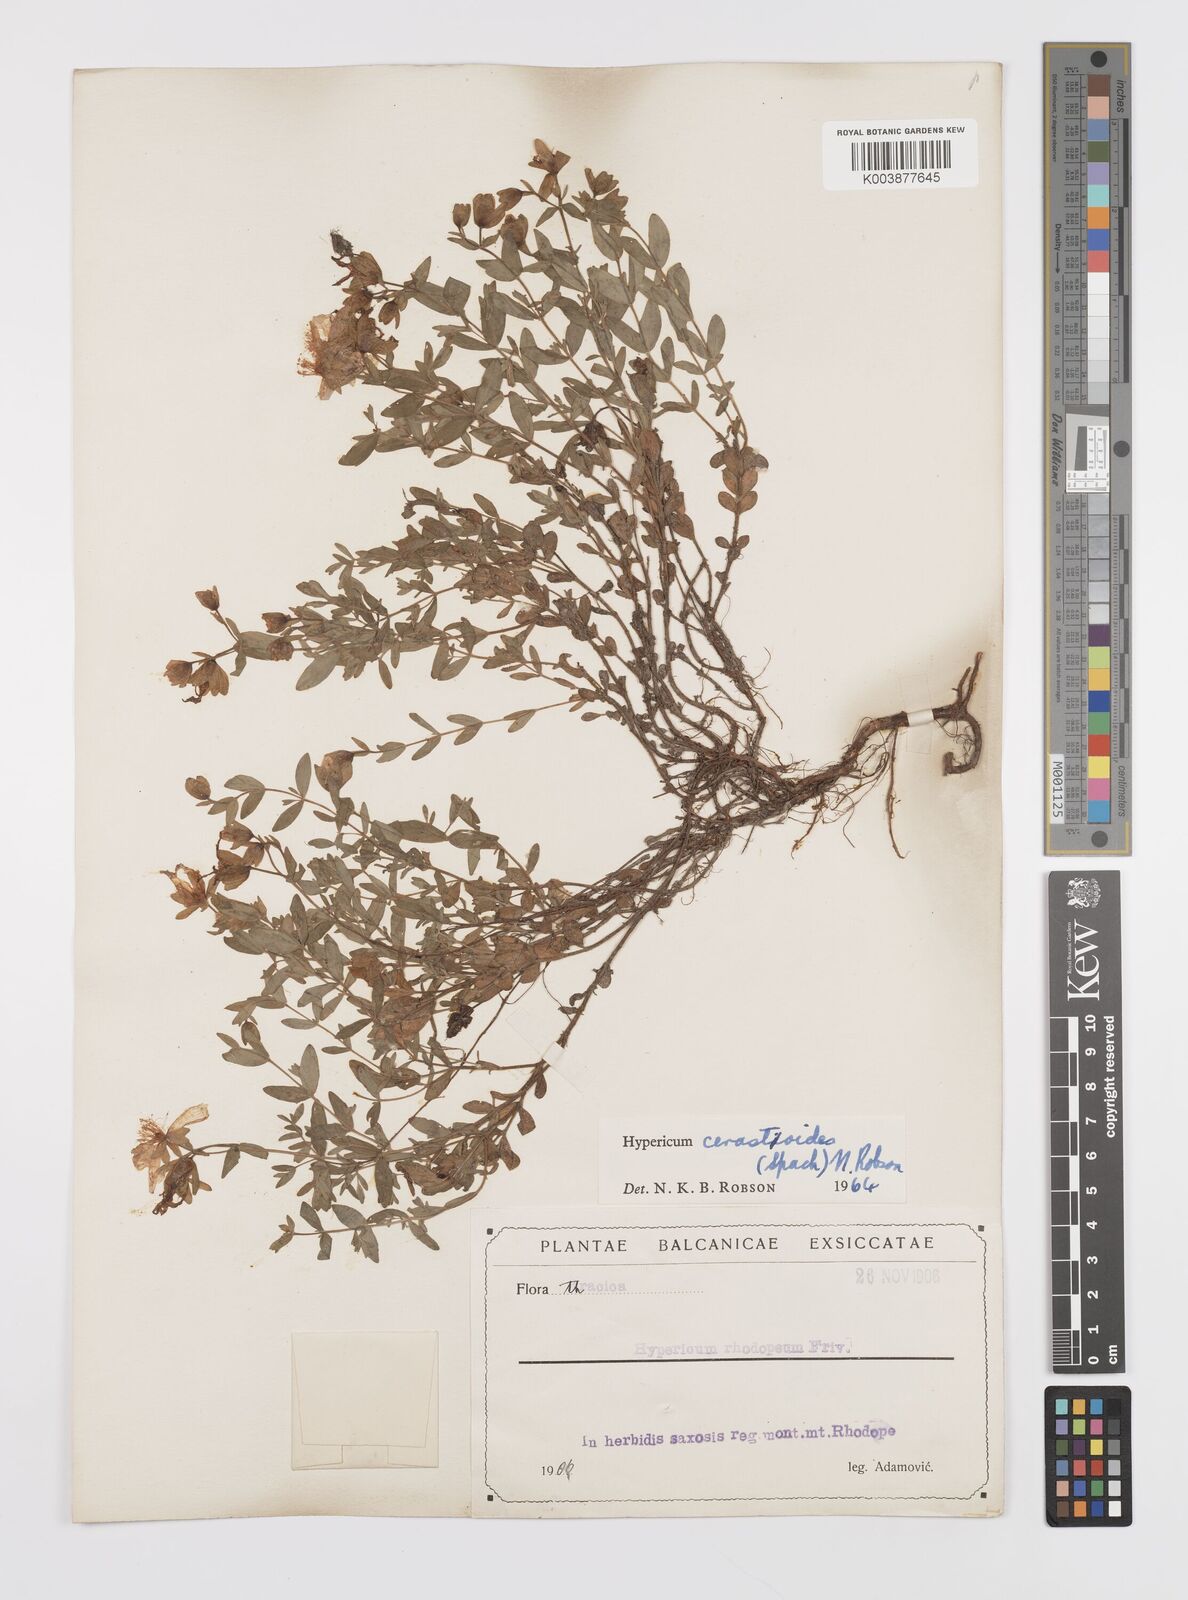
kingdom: Plantae
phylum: Tracheophyta
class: Magnoliopsida
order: Malpighiales
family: Hypericaceae
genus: Hypericum
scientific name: Hypericum cerastoides
